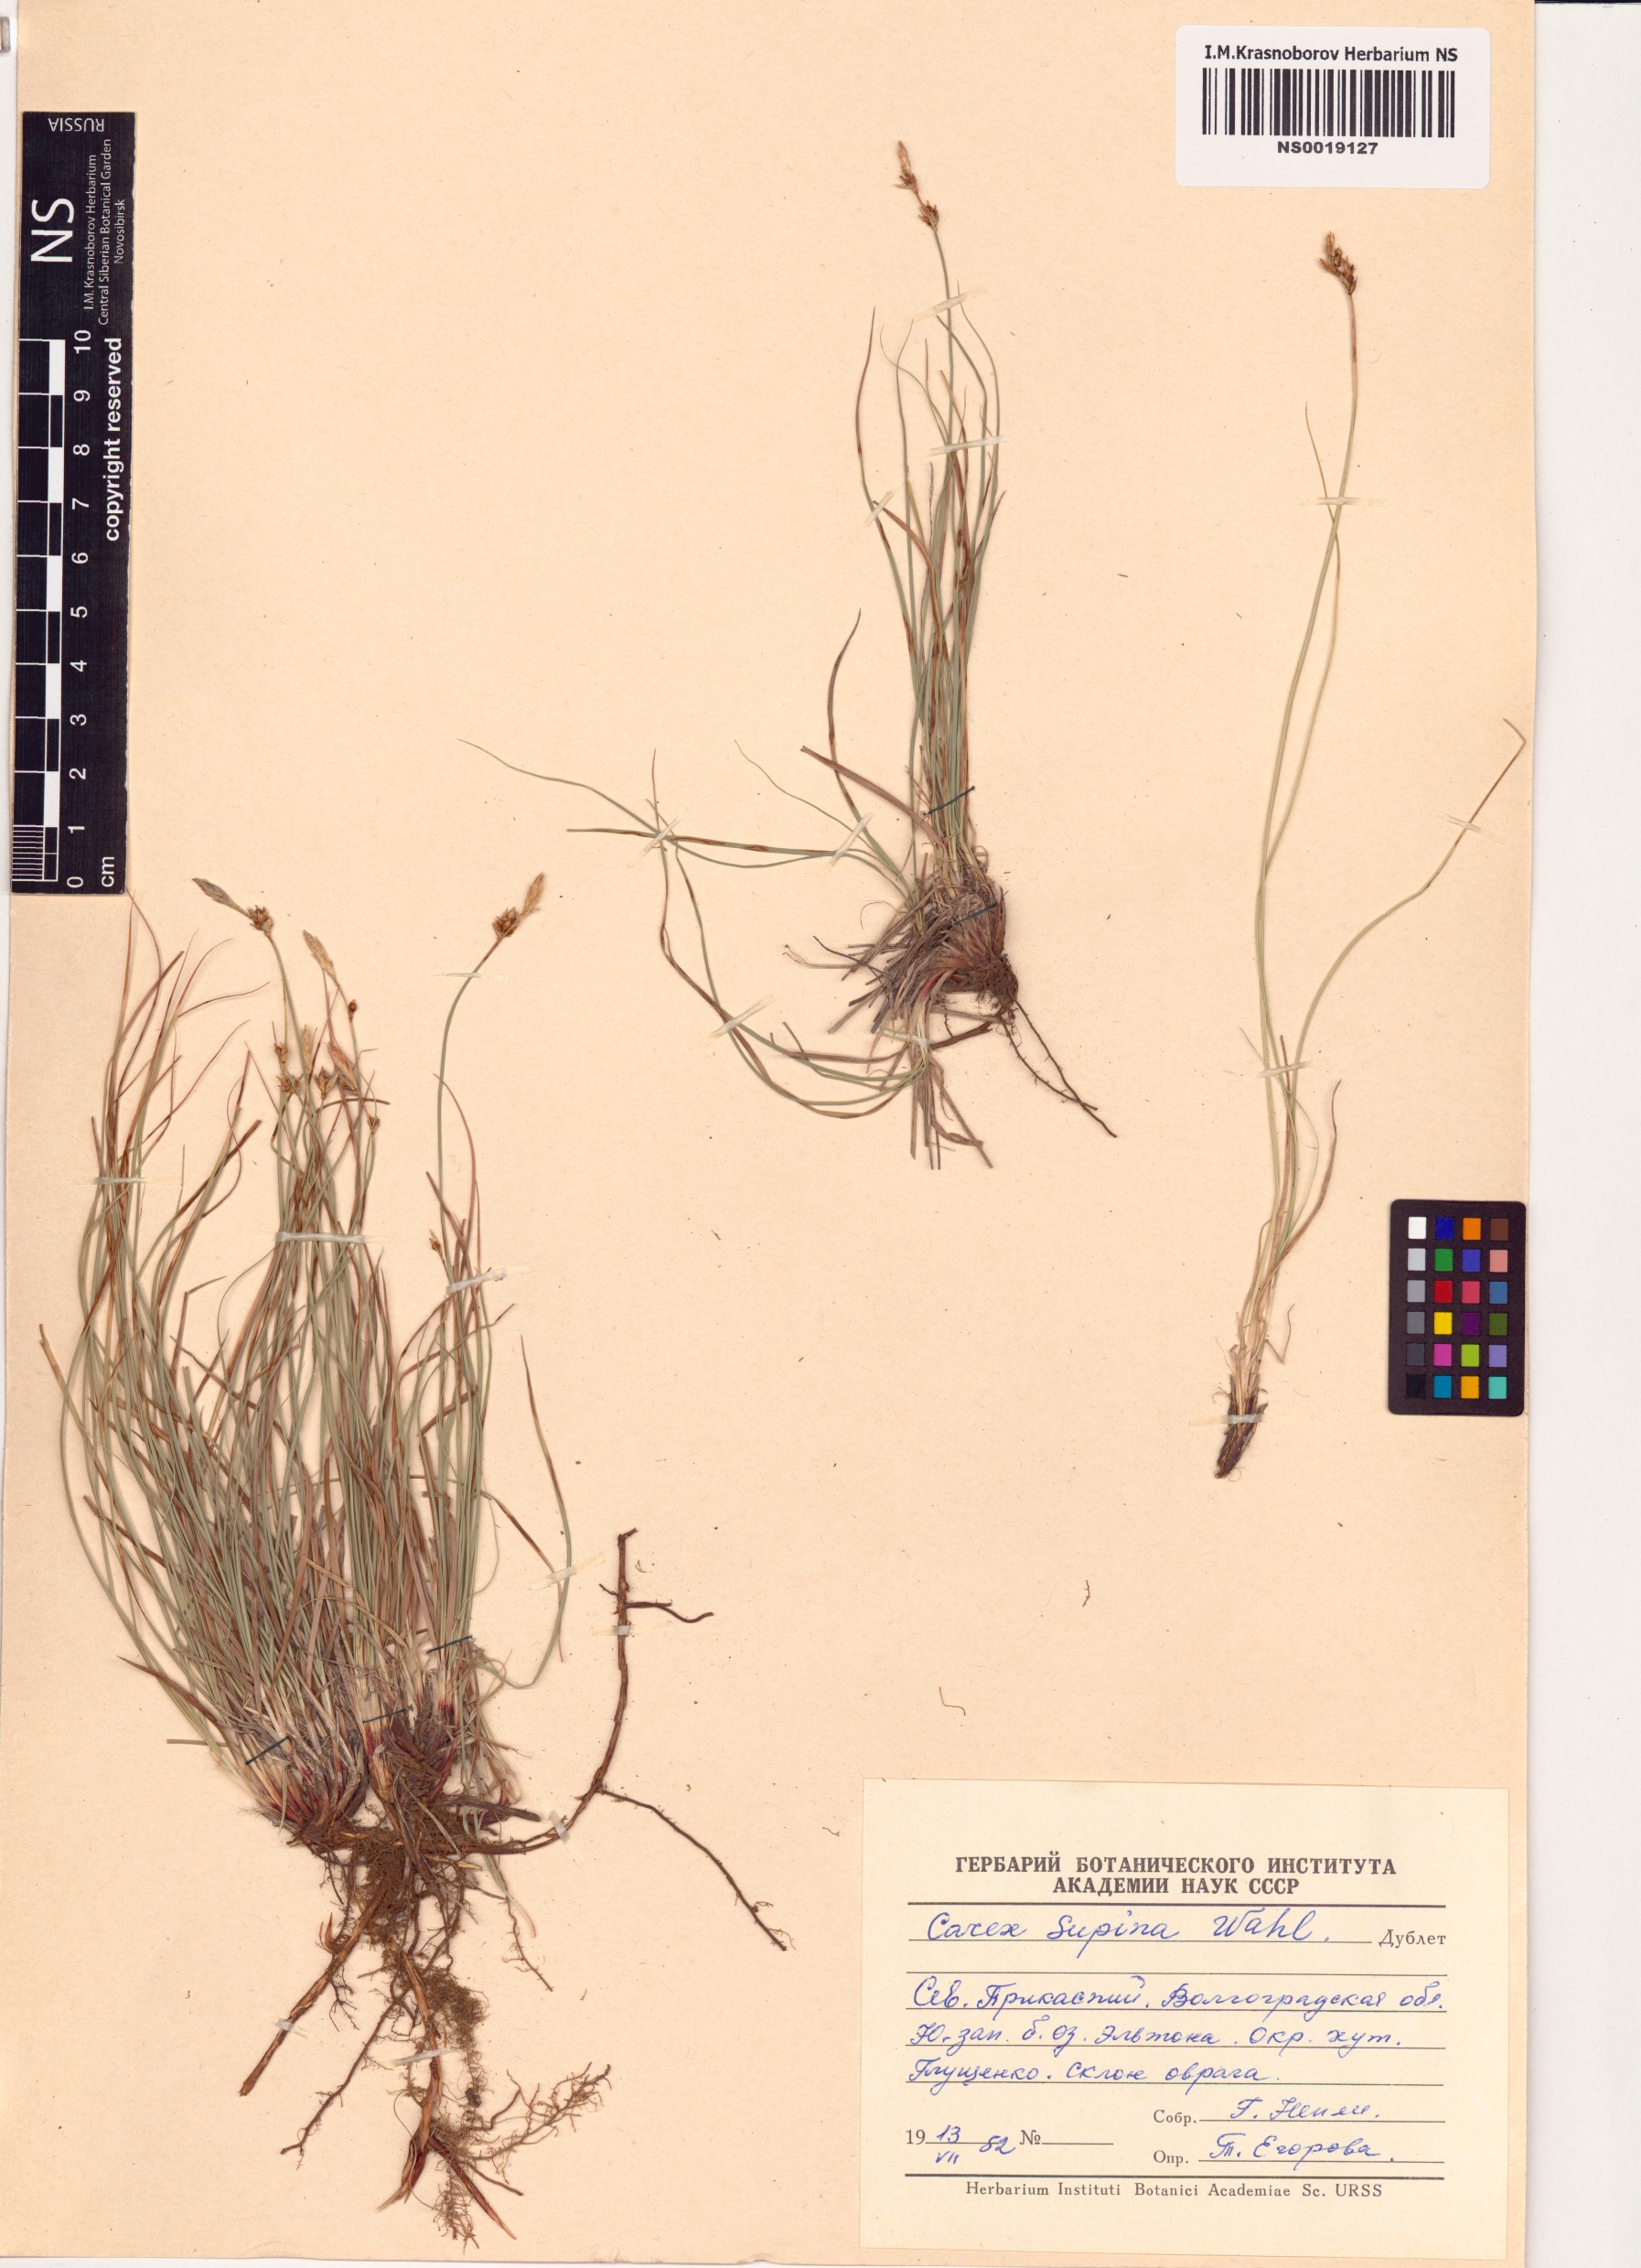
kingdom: Plantae
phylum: Tracheophyta
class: Liliopsida
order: Poales
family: Cyperaceae
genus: Carex
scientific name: Carex supina
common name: Lying-back sedge
